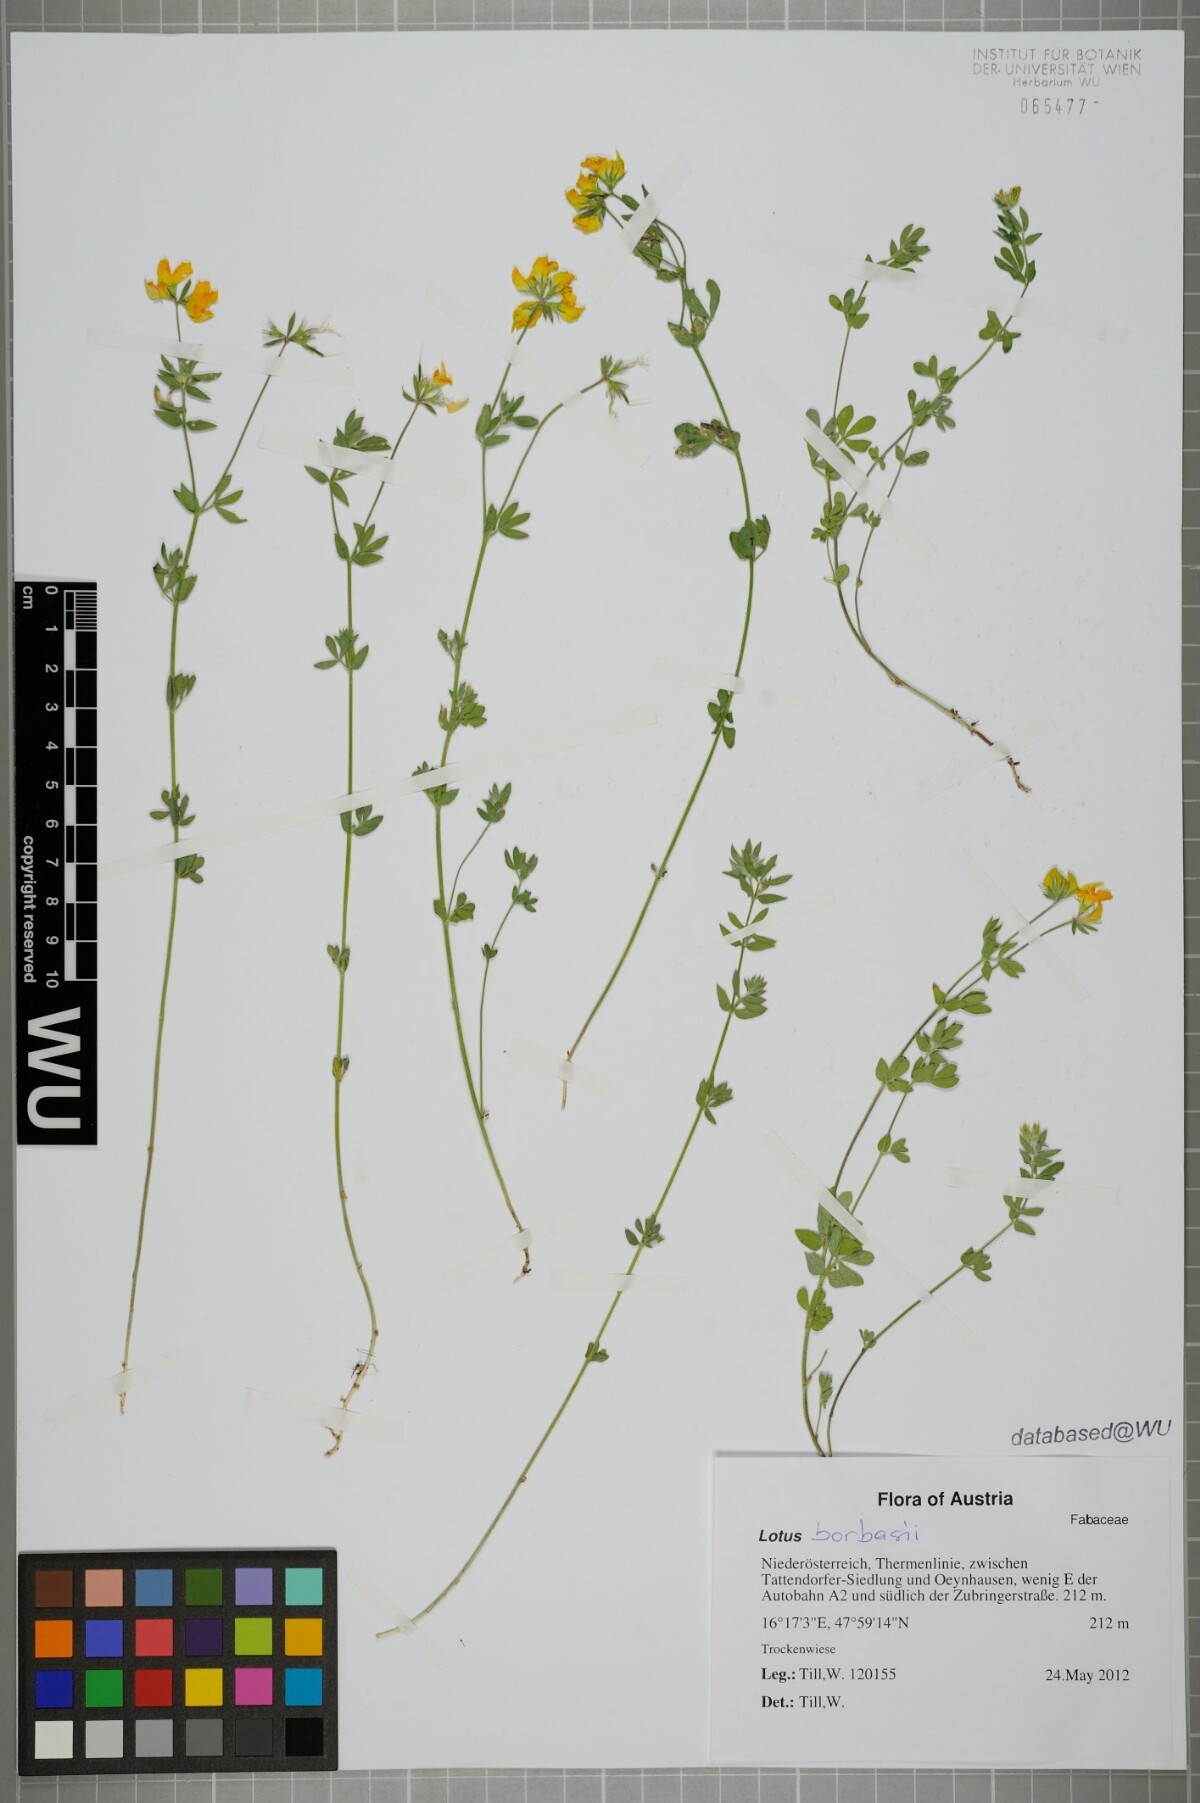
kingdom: Plantae
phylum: Tracheophyta
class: Magnoliopsida
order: Fabales
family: Fabaceae
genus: Lotus
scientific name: Lotus borbasii
